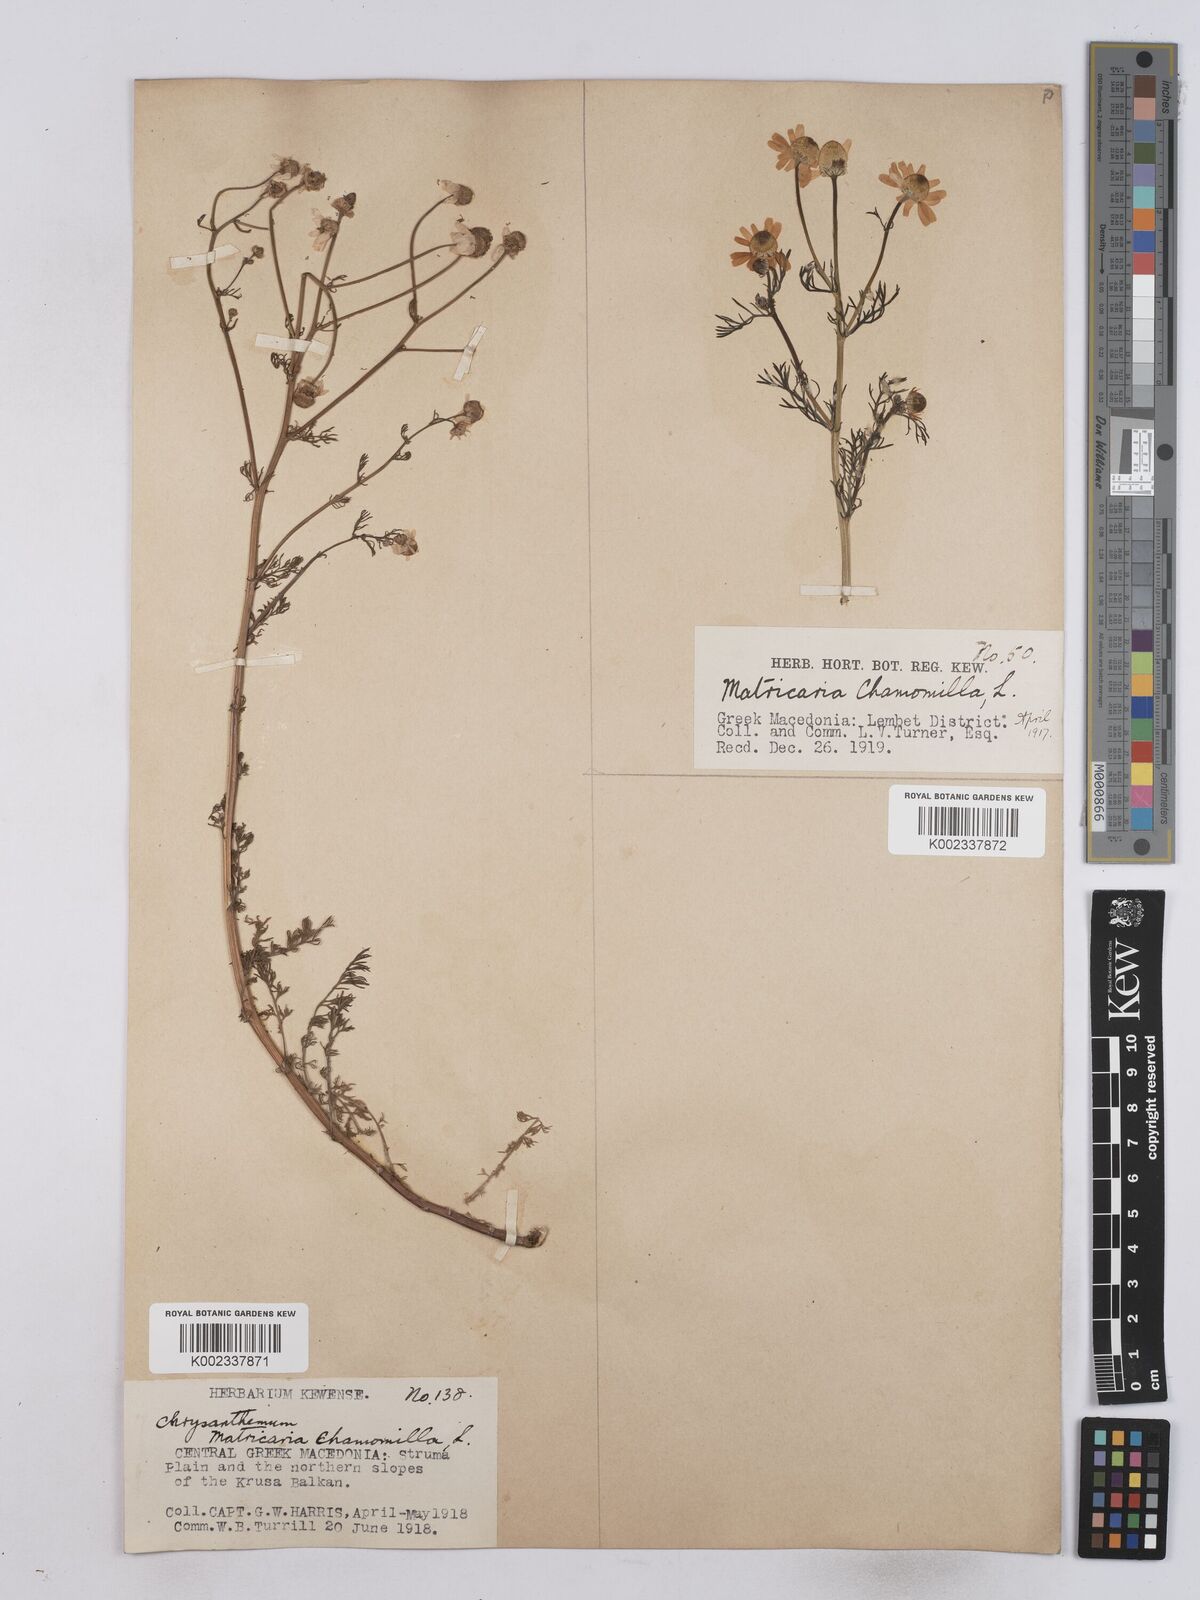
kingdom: Plantae
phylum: Tracheophyta
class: Magnoliopsida
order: Asterales
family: Asteraceae
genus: Matricaria
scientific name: Matricaria chamomilla
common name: Scented mayweed
